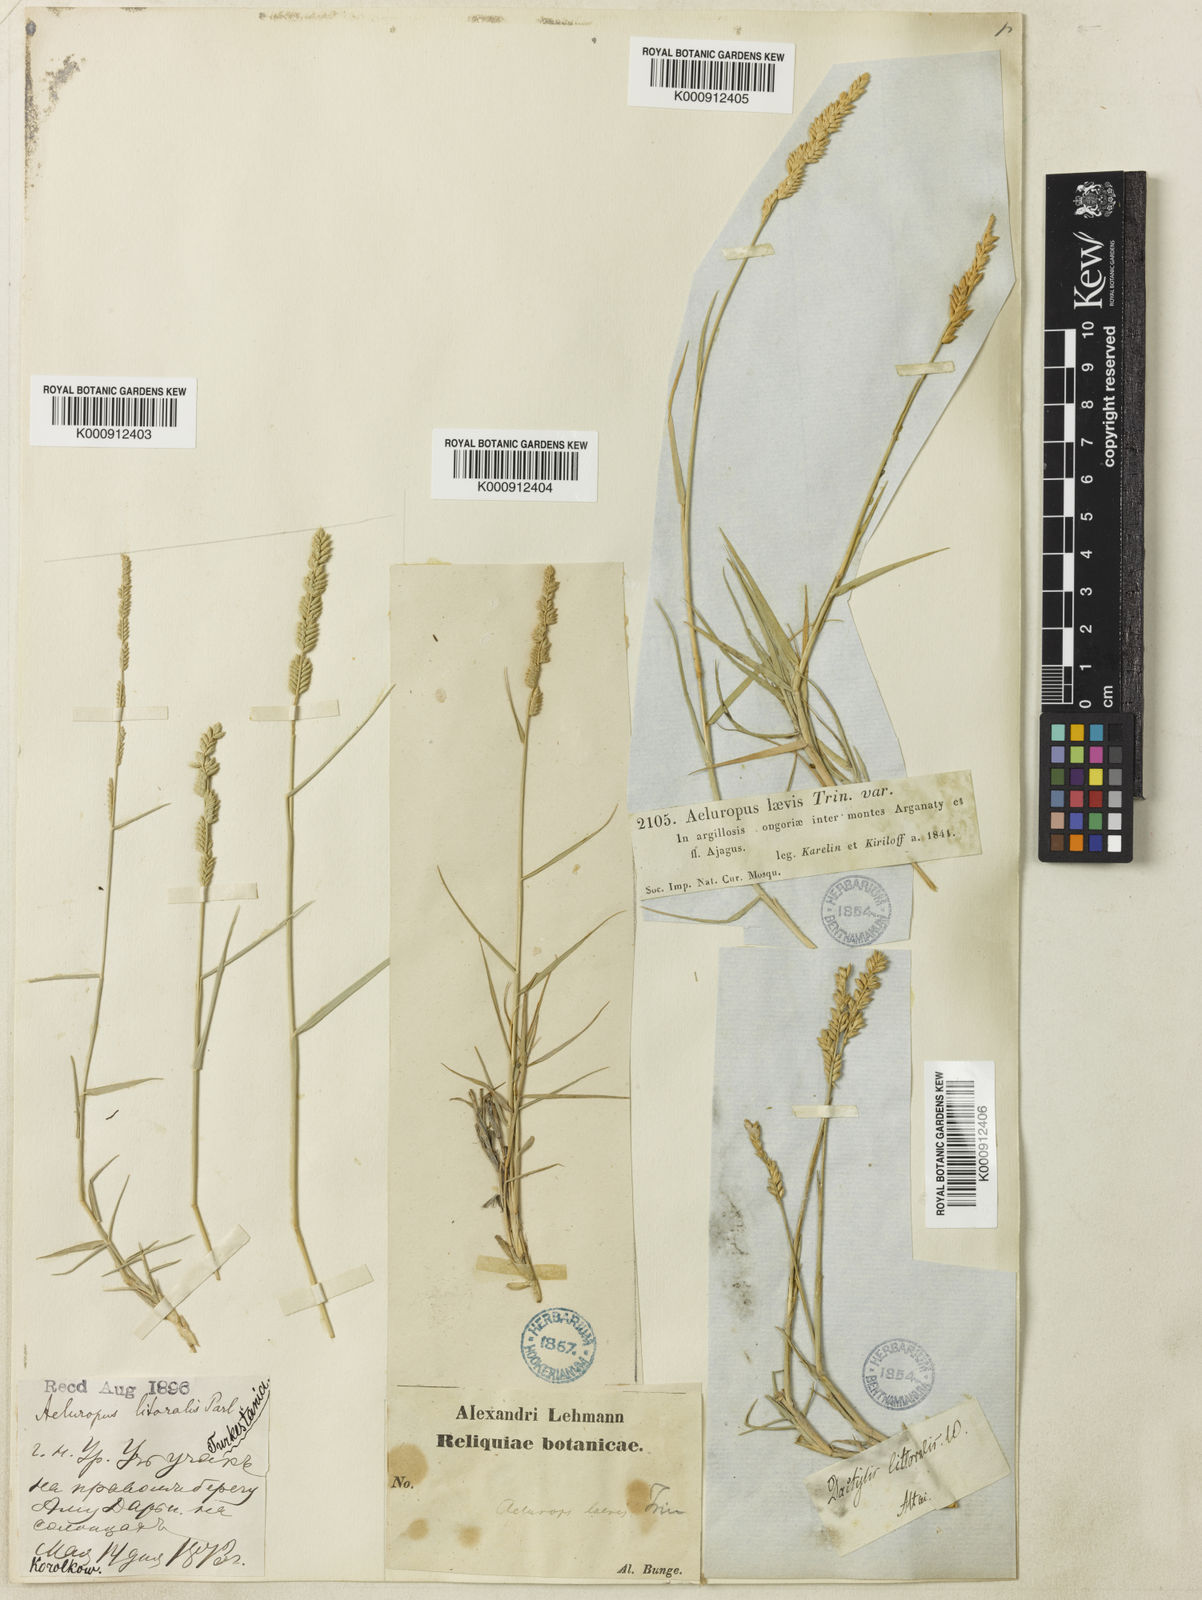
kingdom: Plantae
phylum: Tracheophyta
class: Liliopsida
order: Poales
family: Poaceae
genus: Aeluropus
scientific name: Aeluropus littoralis
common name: Indian walnut
